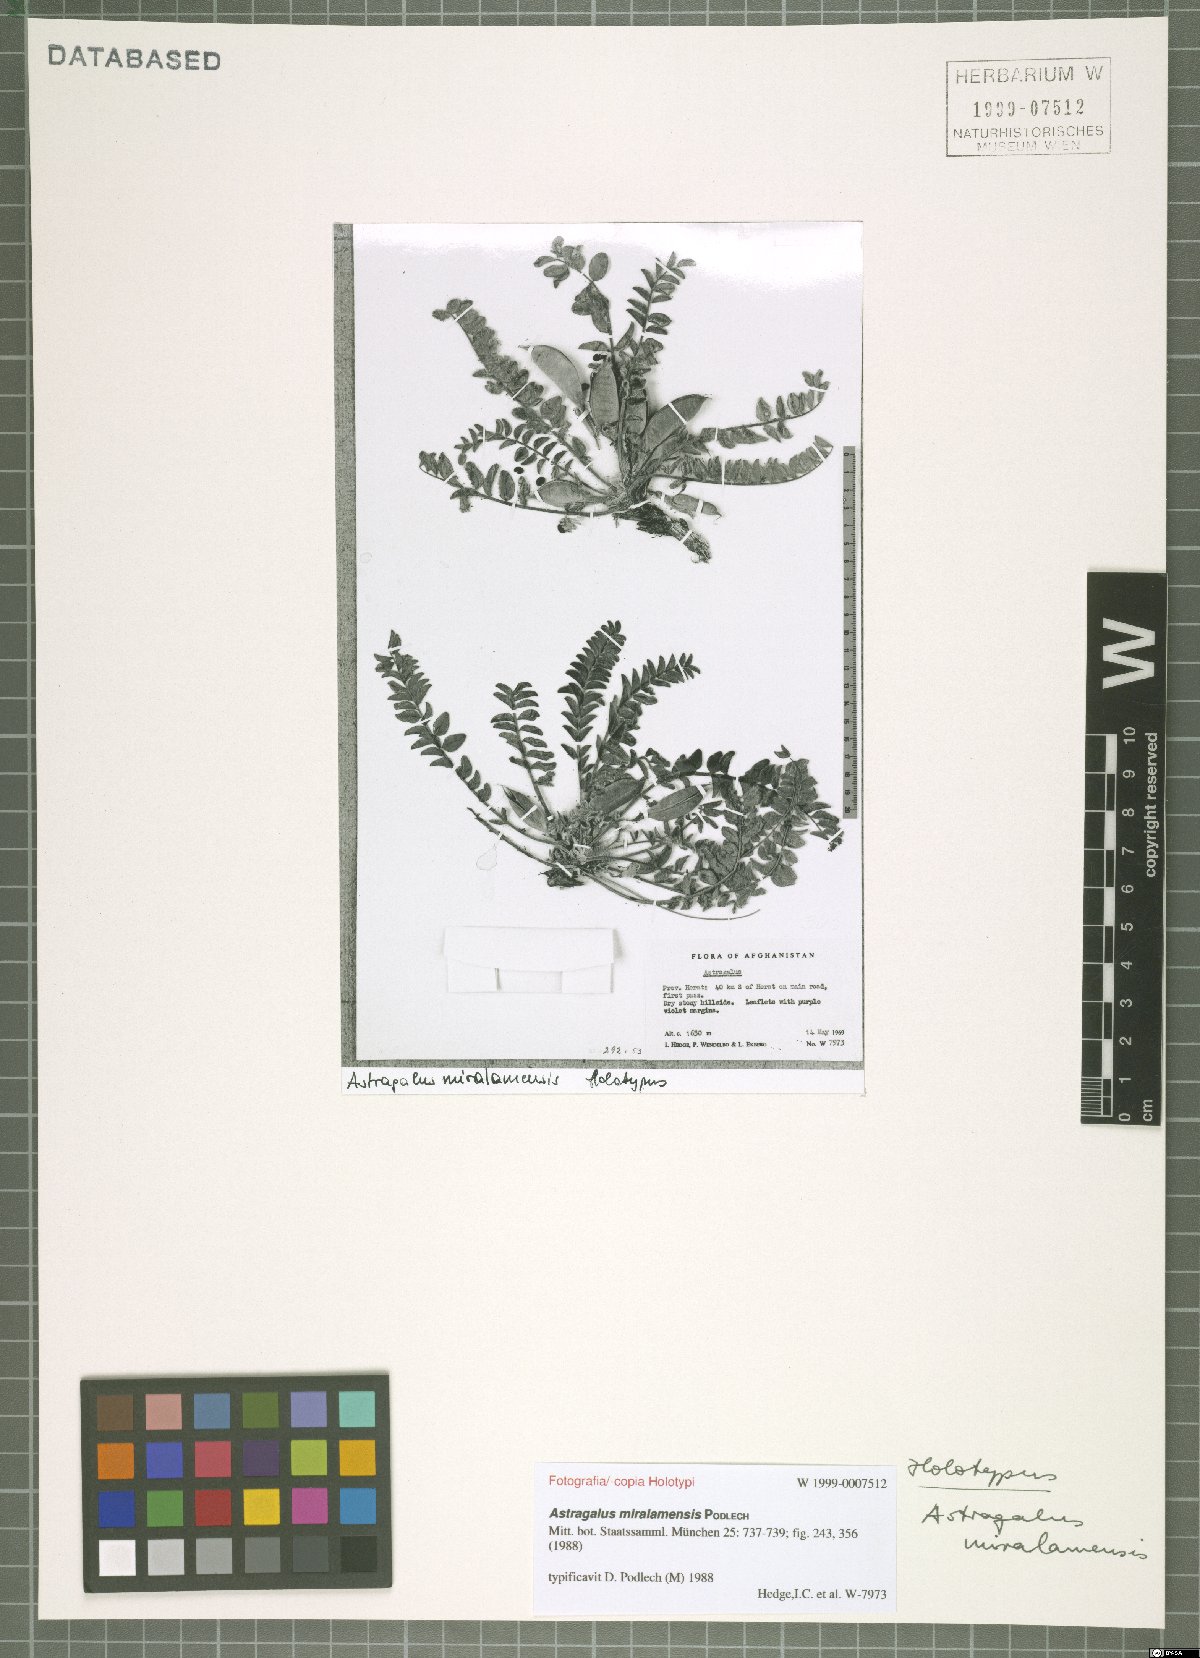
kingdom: Plantae
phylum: Tracheophyta
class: Magnoliopsida
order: Fabales
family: Fabaceae
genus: Astragalus
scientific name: Astragalus miralamensis
